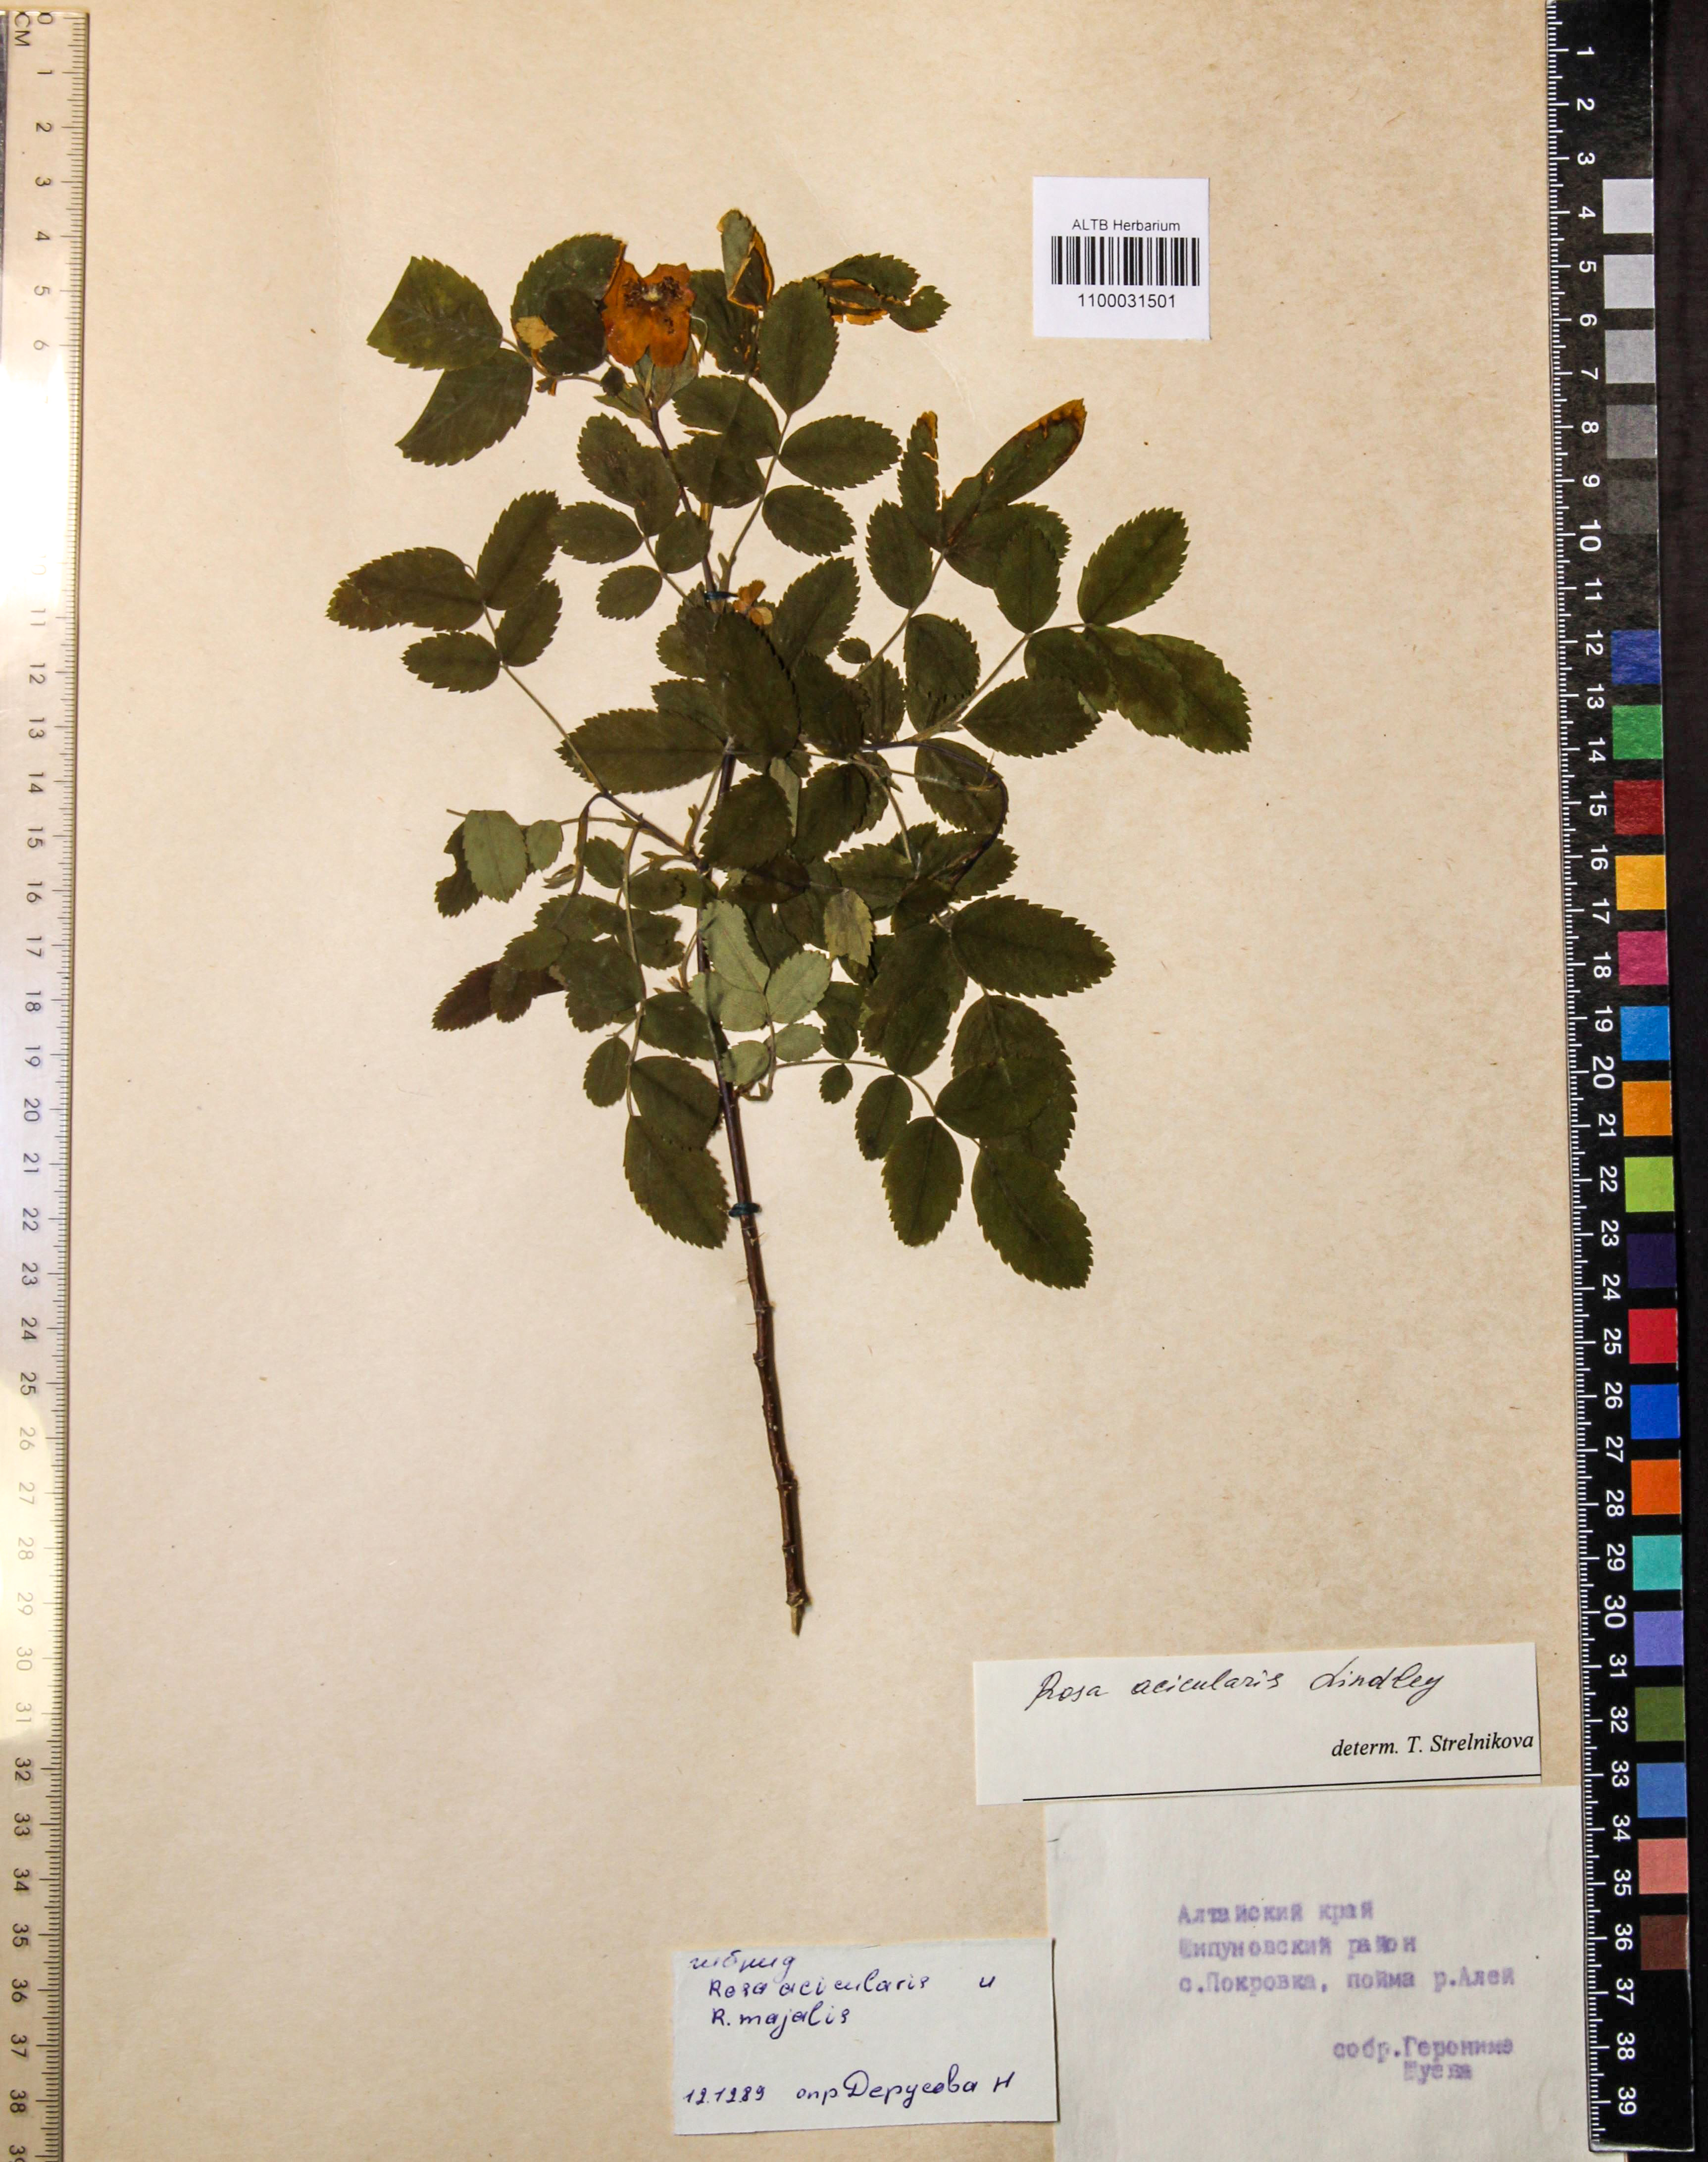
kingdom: Plantae
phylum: Tracheophyta
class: Magnoliopsida
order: Rosales
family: Rosaceae
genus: Rosa
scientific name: Rosa acicularis
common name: Prickly rose
